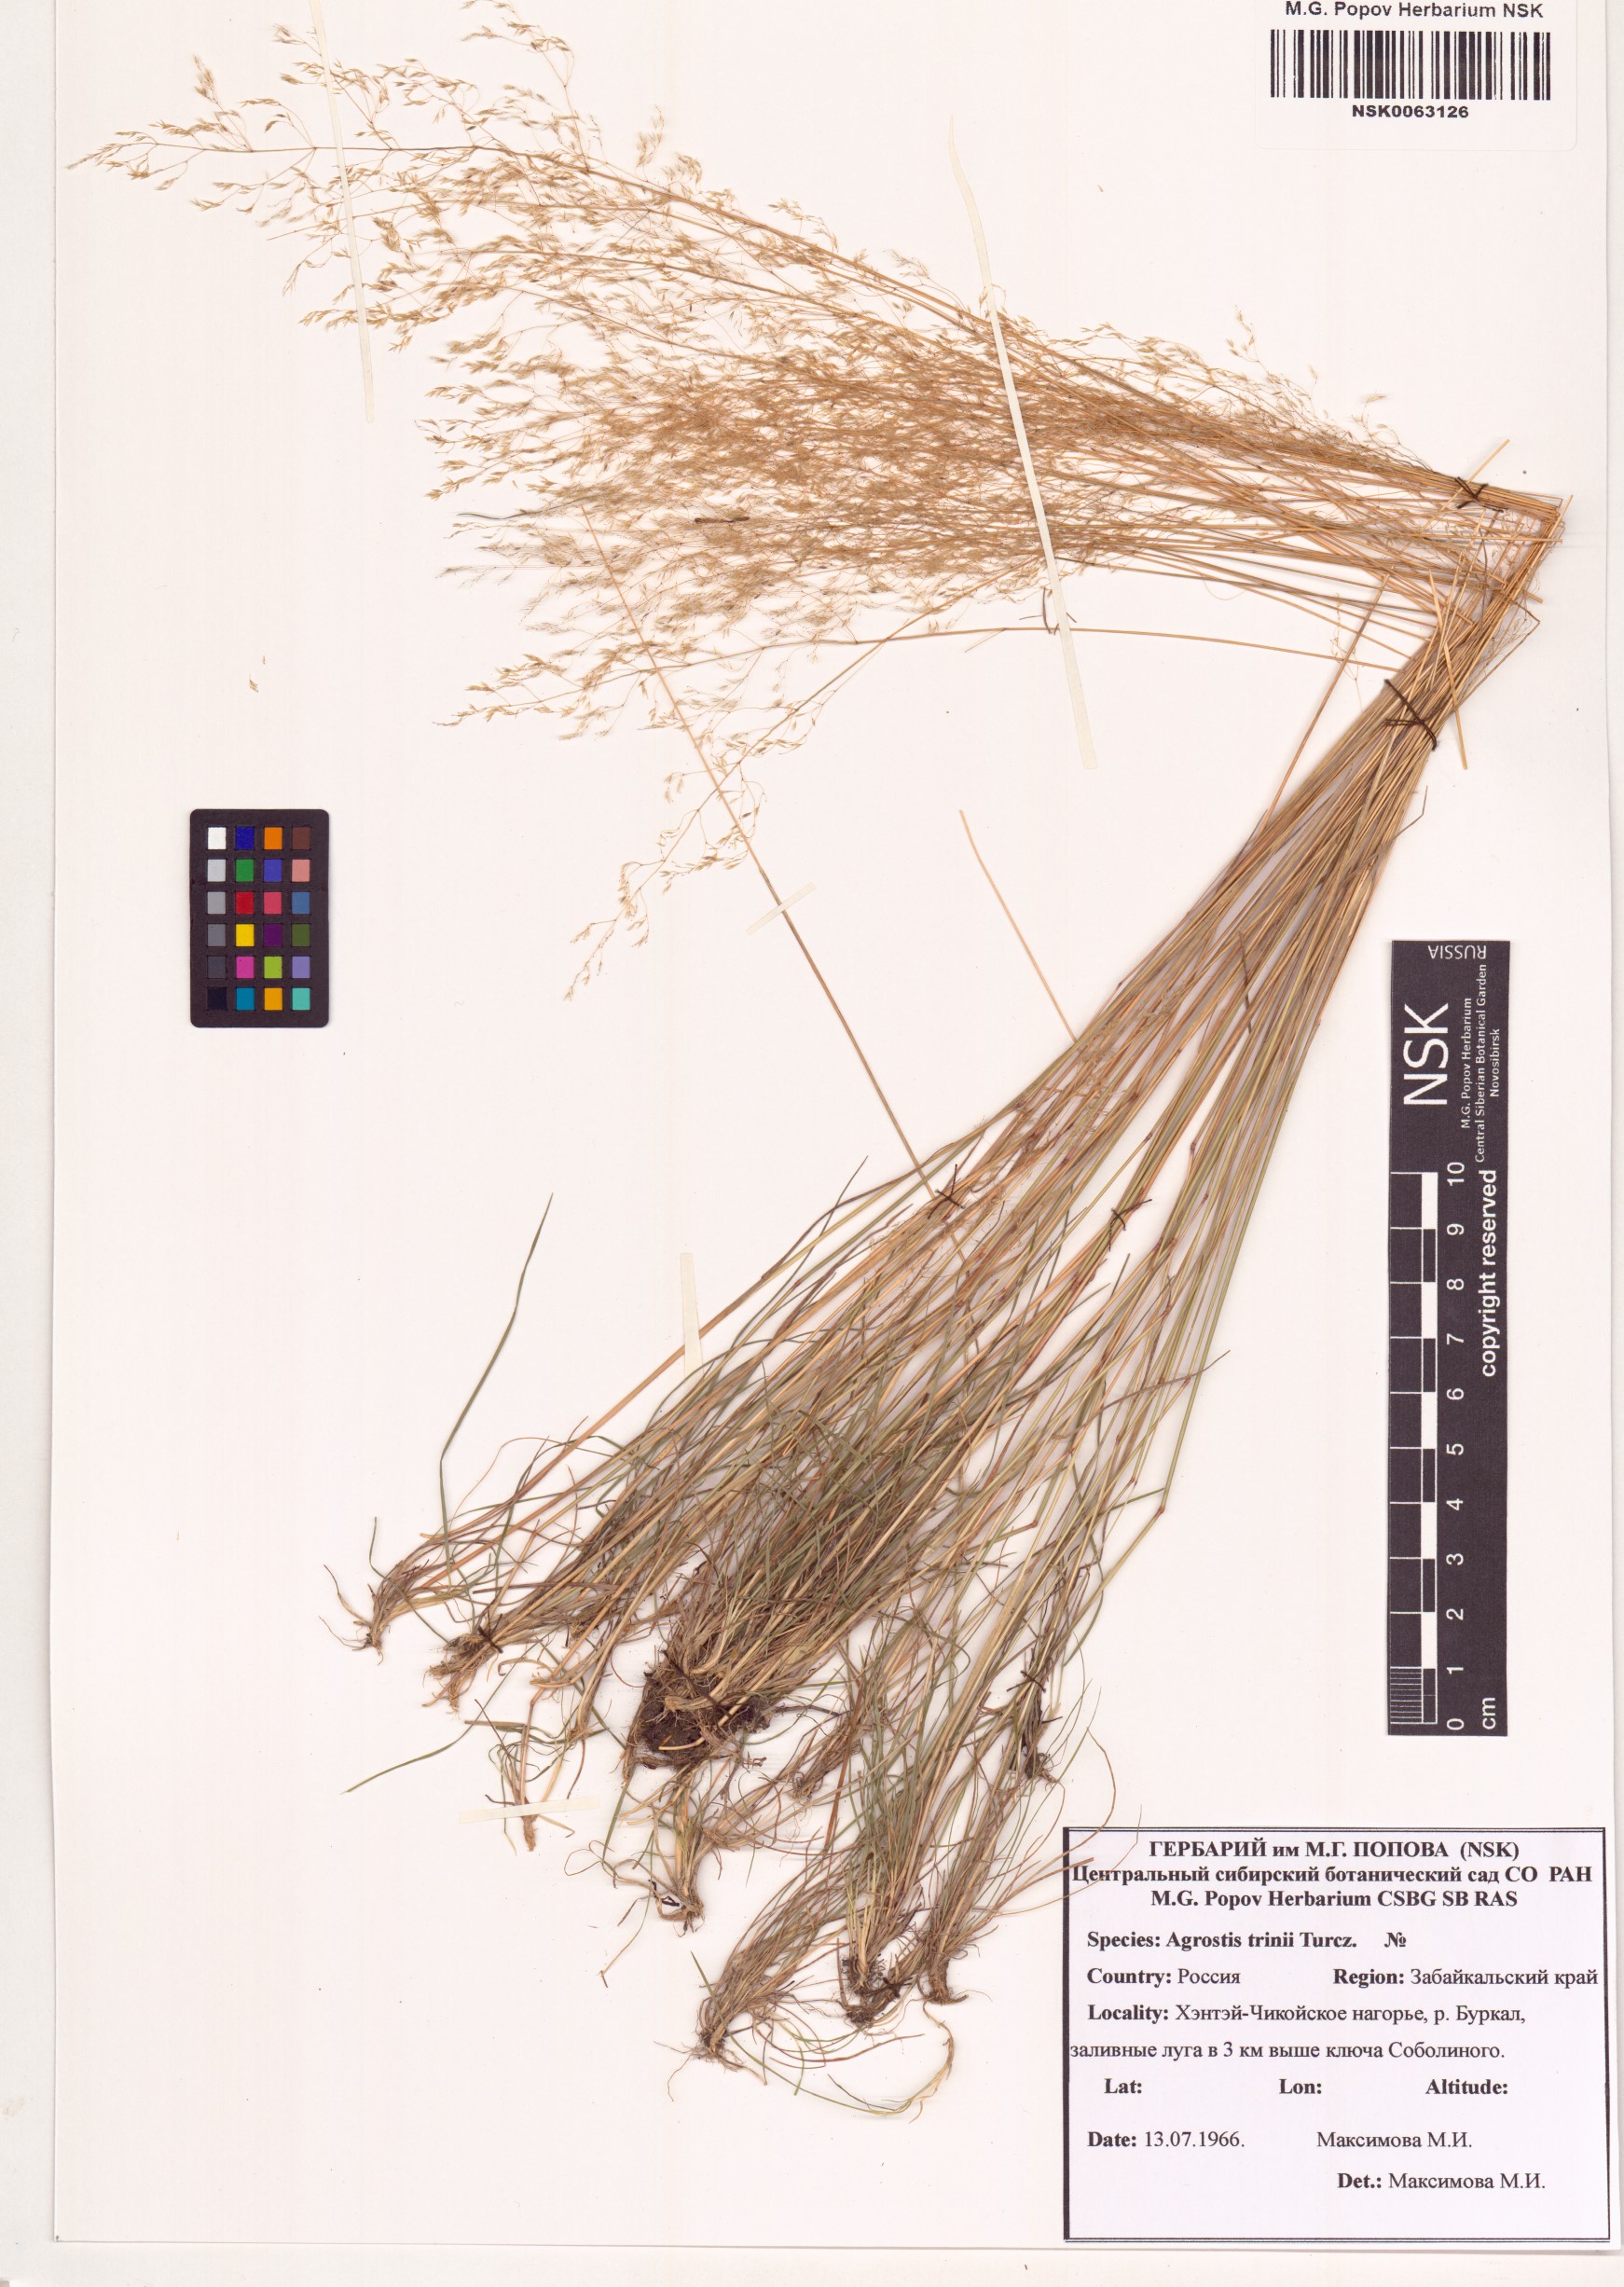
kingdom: Plantae
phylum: Tracheophyta
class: Liliopsida
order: Poales
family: Poaceae
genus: Agrostis
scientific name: Agrostis vinealis
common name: Brown bent
